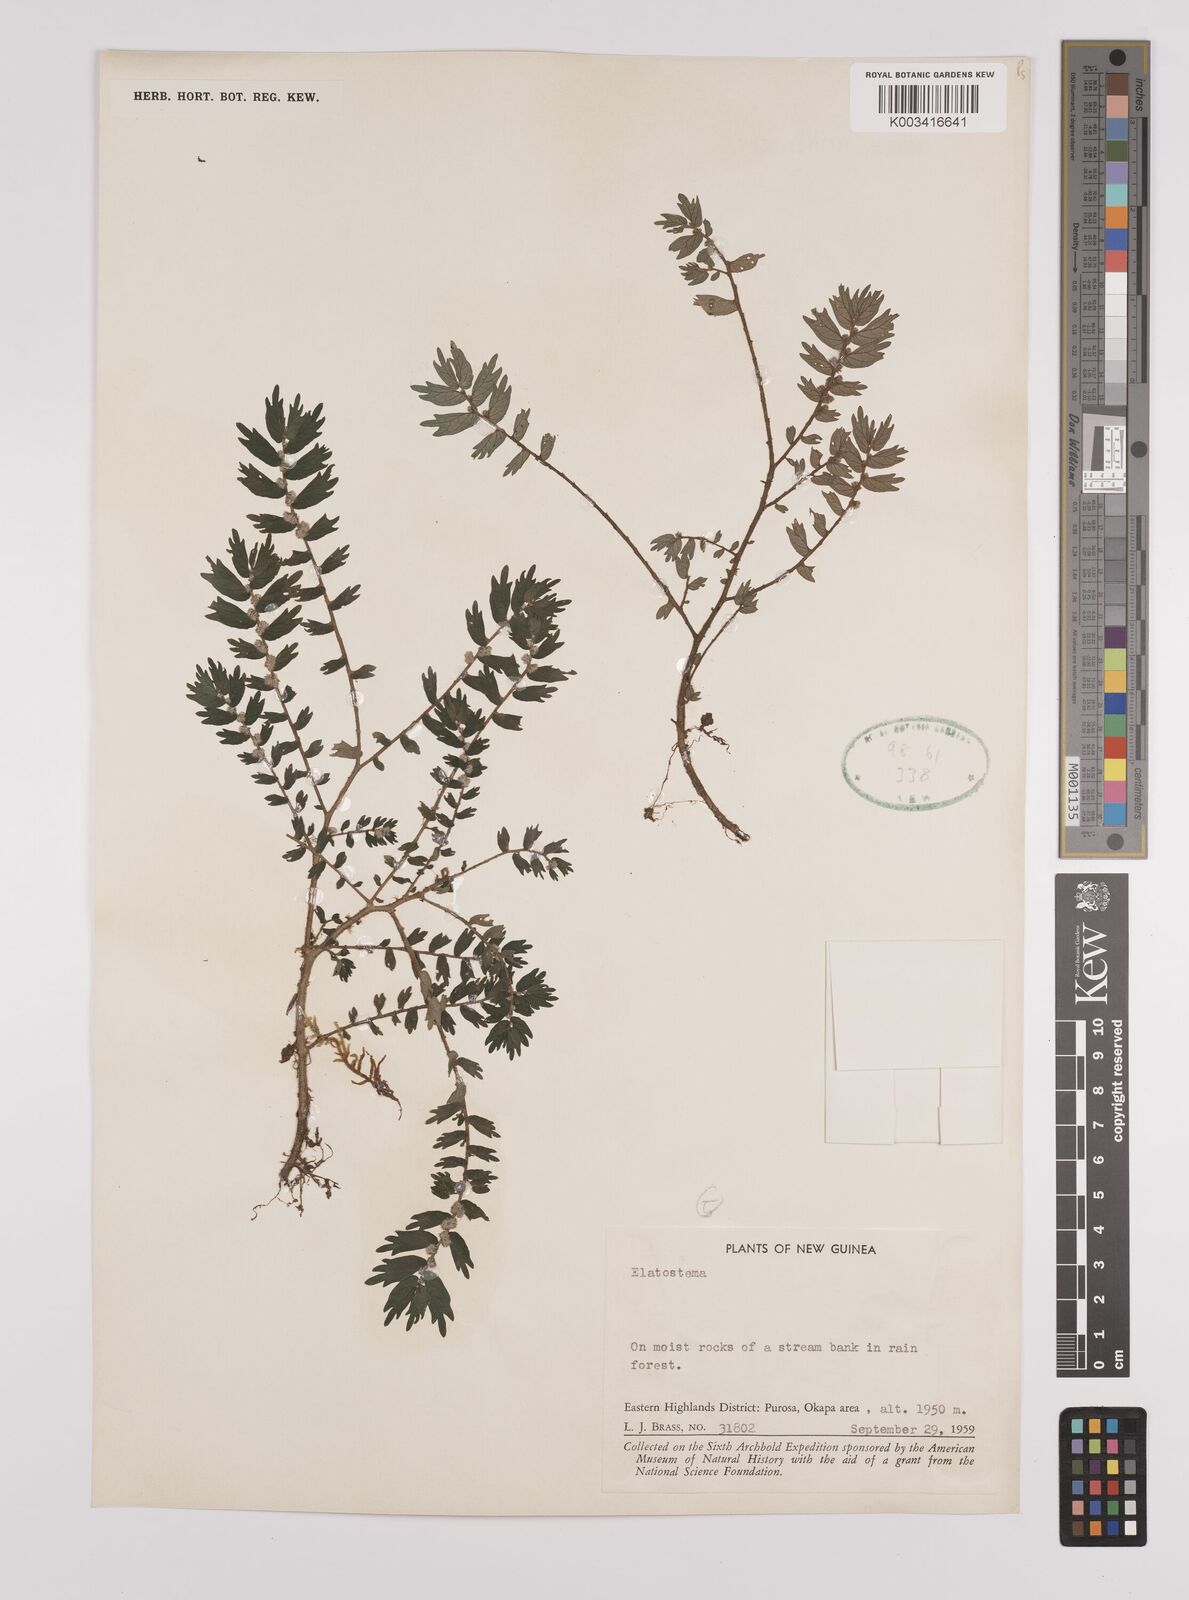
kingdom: Plantae
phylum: Tracheophyta
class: Magnoliopsida
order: Rosales
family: Urticaceae
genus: Elatostema
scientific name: Elatostema
